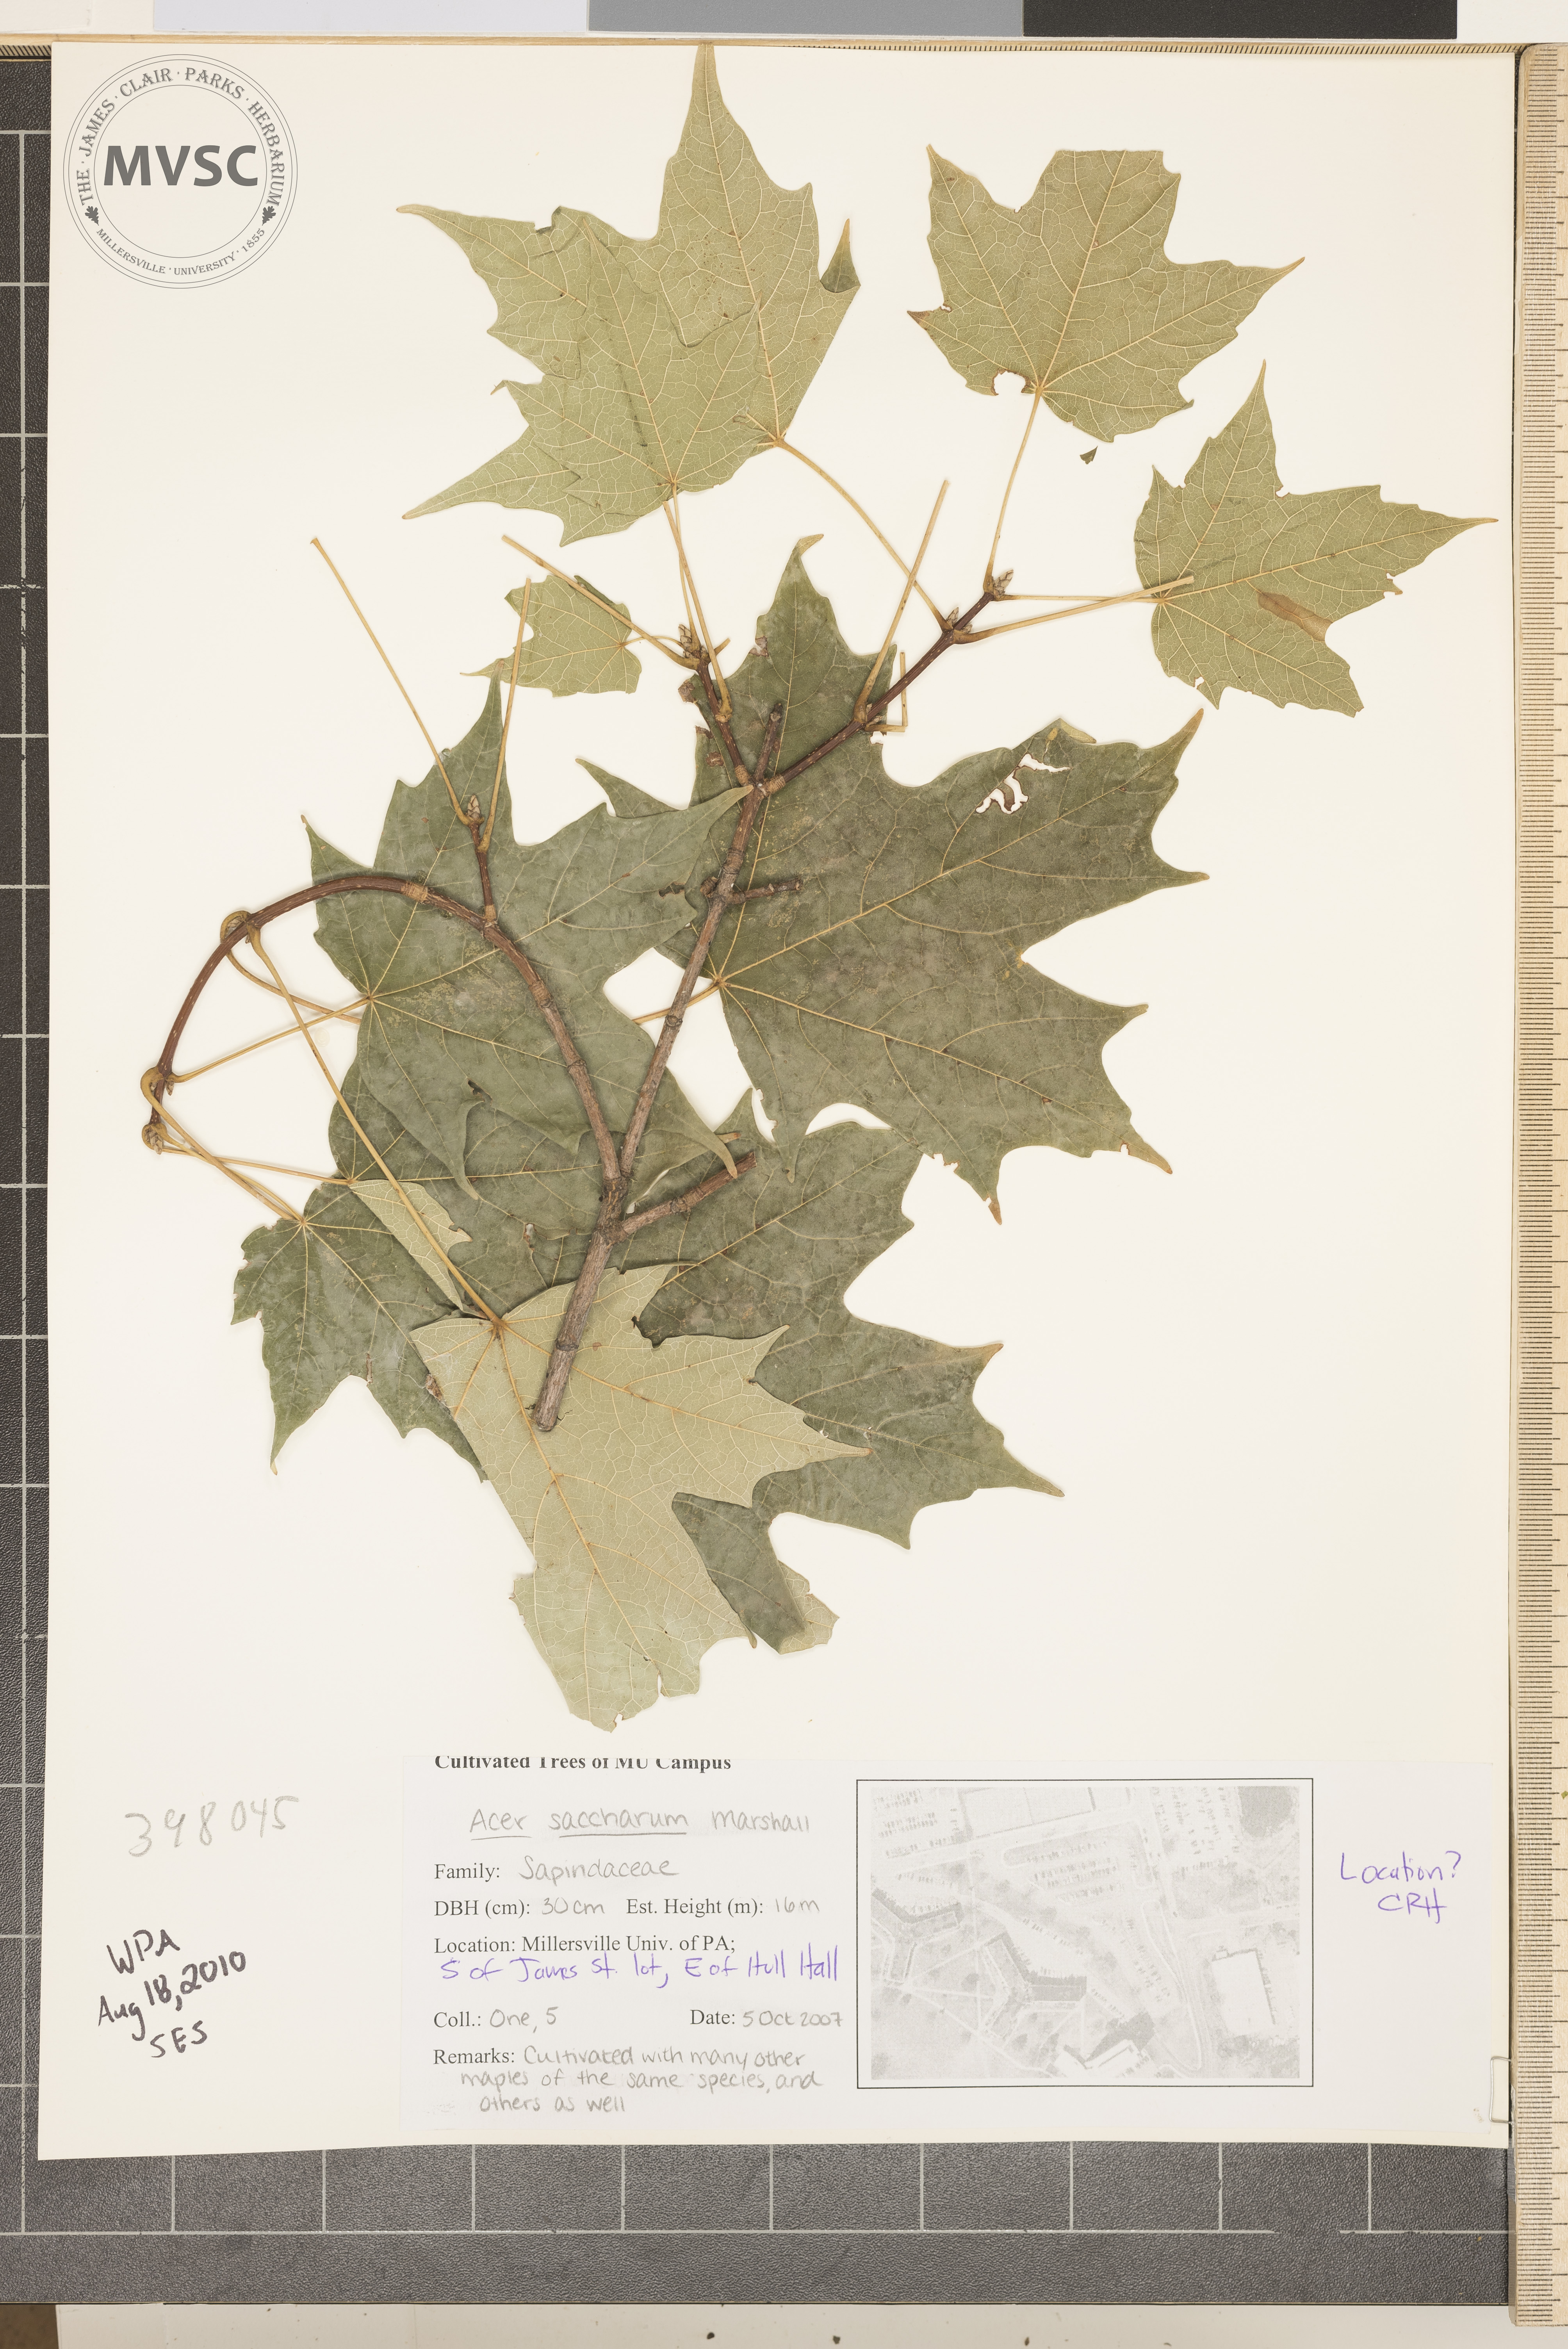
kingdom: Plantae
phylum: Tracheophyta
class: Magnoliopsida
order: Sapindales
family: Sapindaceae
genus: Acer
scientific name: Acer saccharum
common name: Sugar maple
